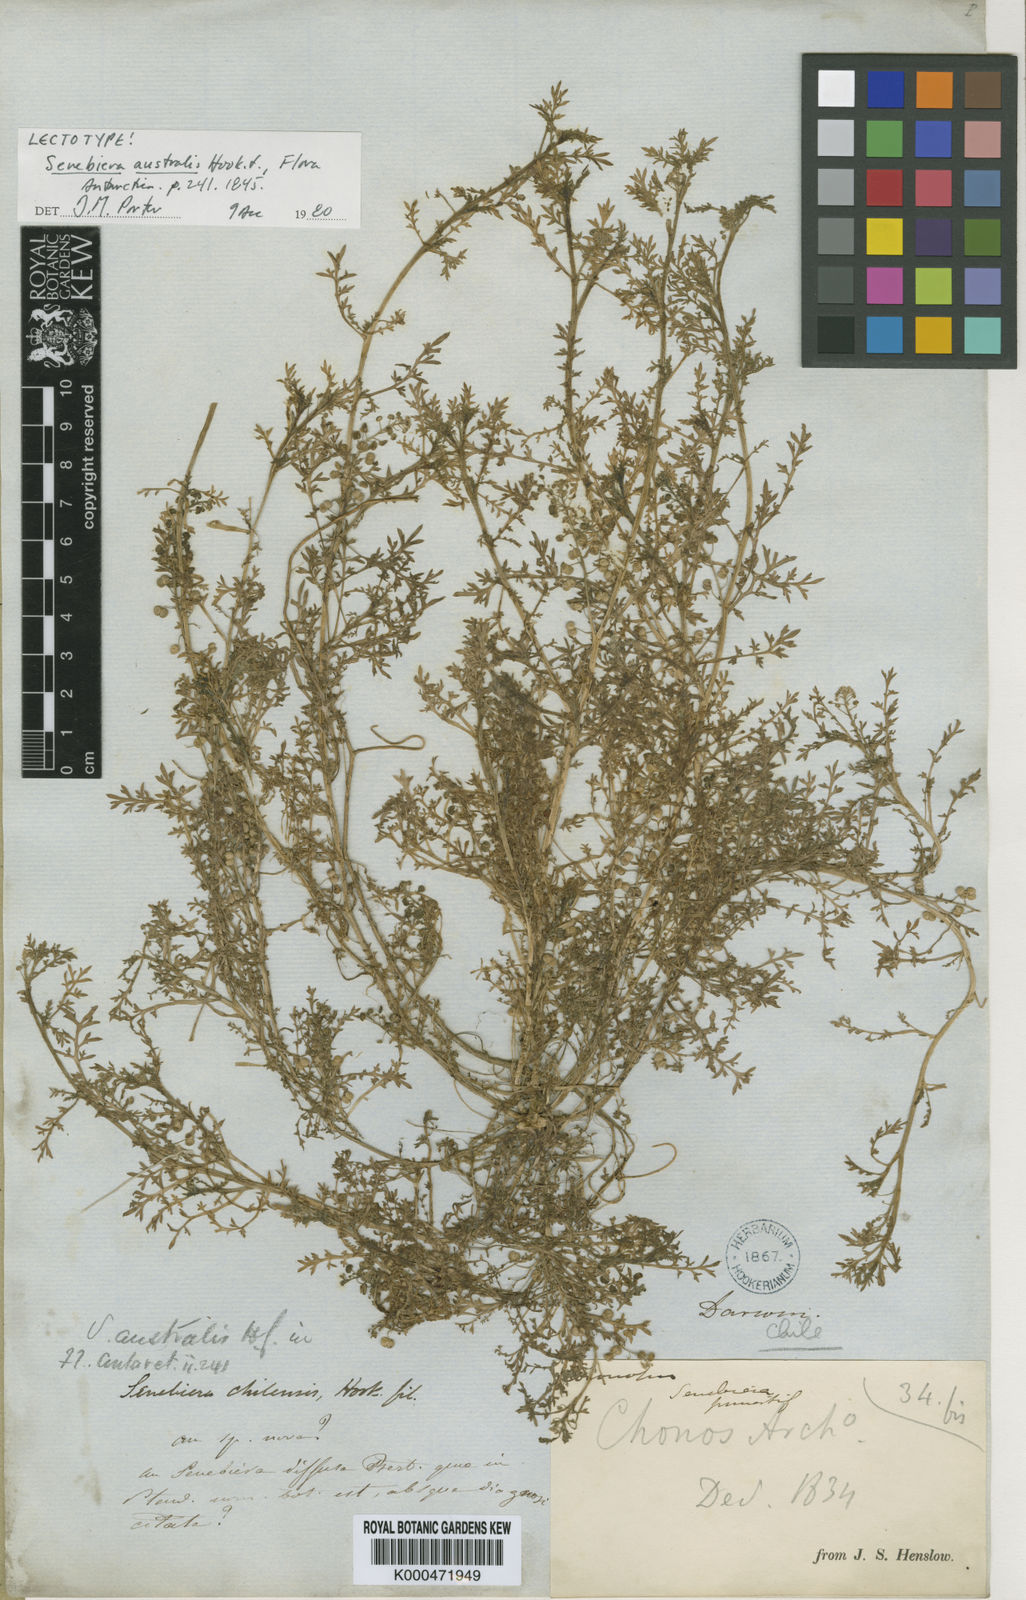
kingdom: Plantae
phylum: Tracheophyta
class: Magnoliopsida
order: Brassicales
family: Brassicaceae
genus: Lepidium
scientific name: Lepidium
